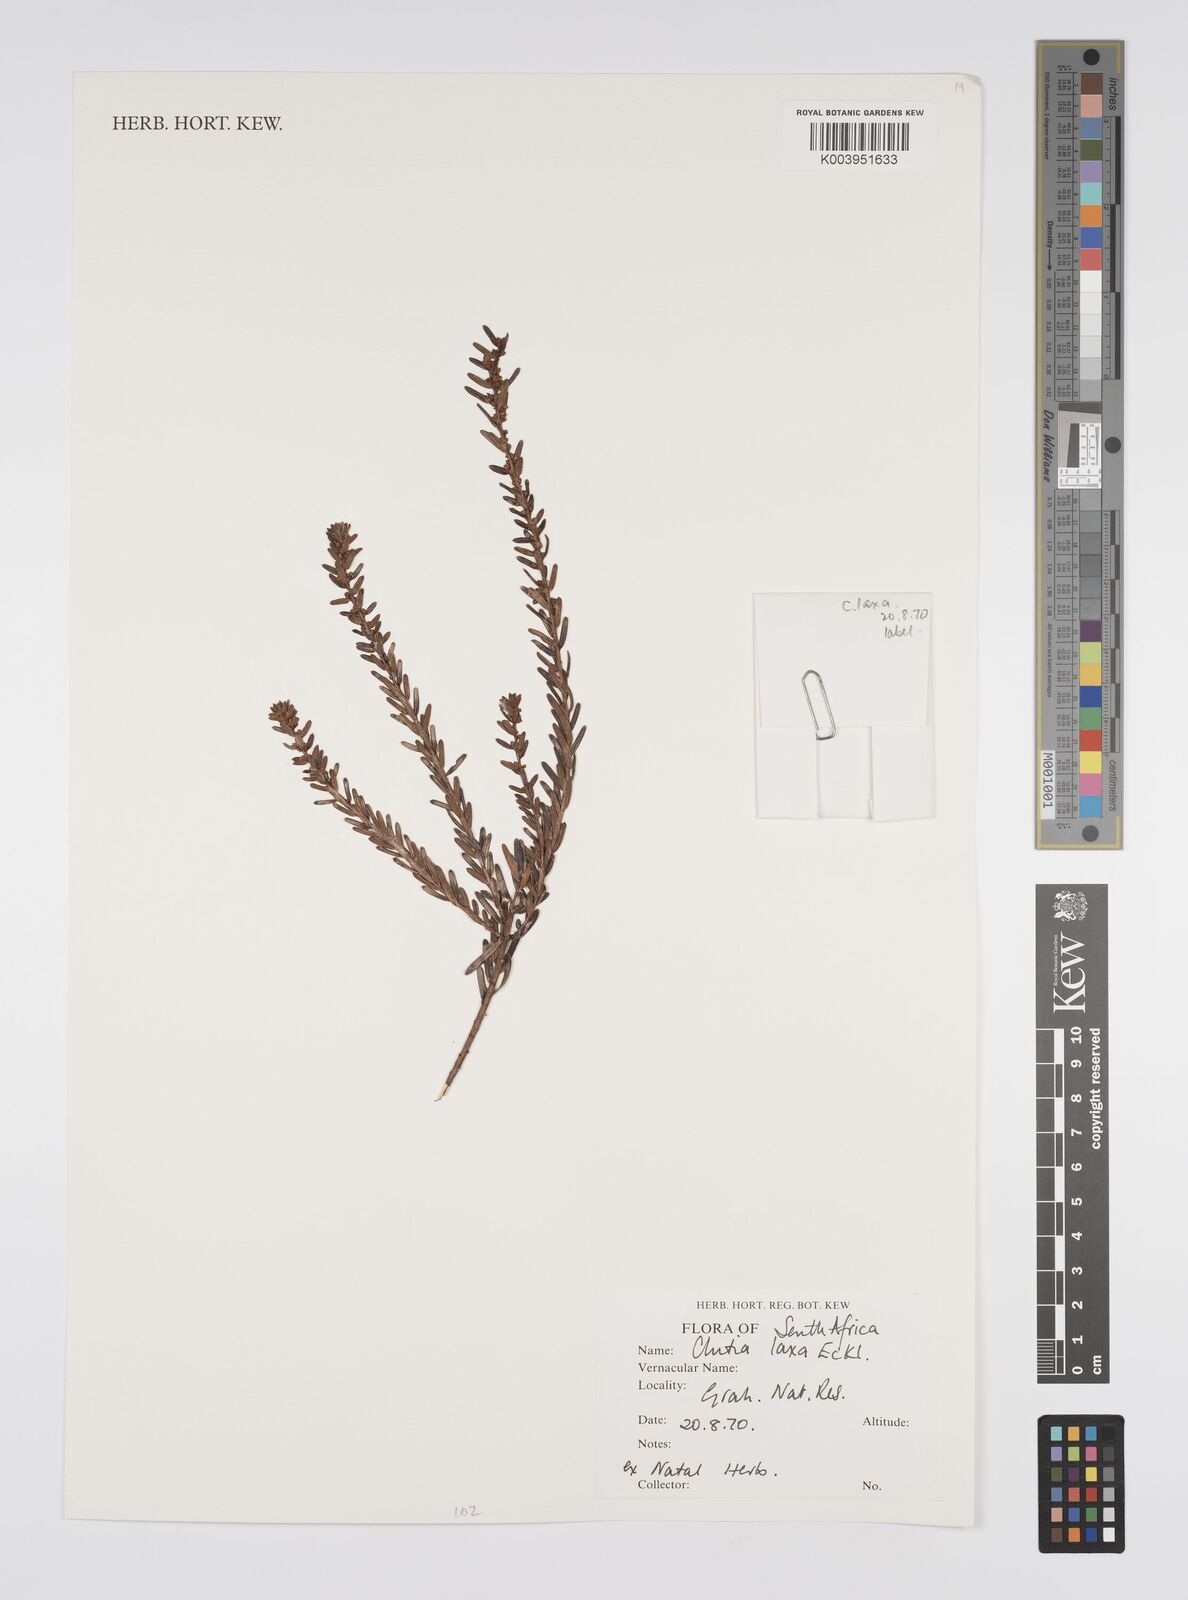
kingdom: Plantae
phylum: Tracheophyta
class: Magnoliopsida
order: Malpighiales
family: Peraceae
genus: Clutia
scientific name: Clutia laxa
